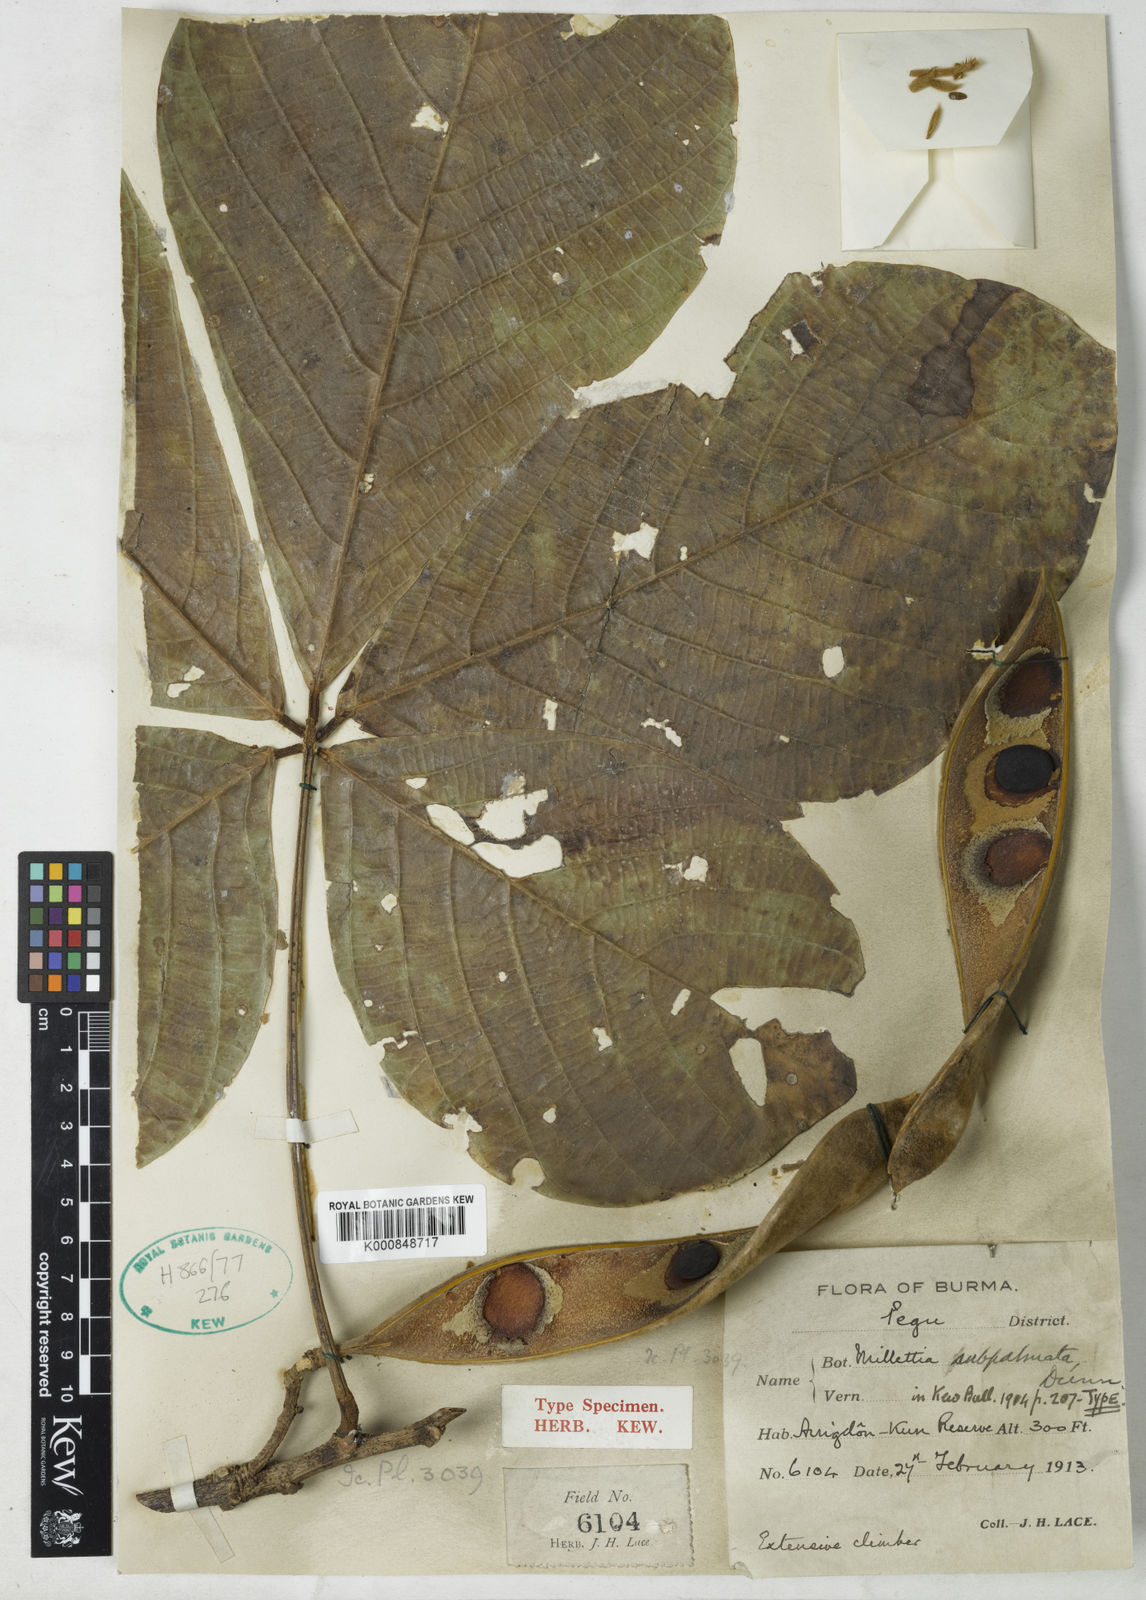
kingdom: Plantae
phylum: Tracheophyta
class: Magnoliopsida
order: Fabales
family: Fabaceae
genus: Millettia
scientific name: Millettia subpalmata
